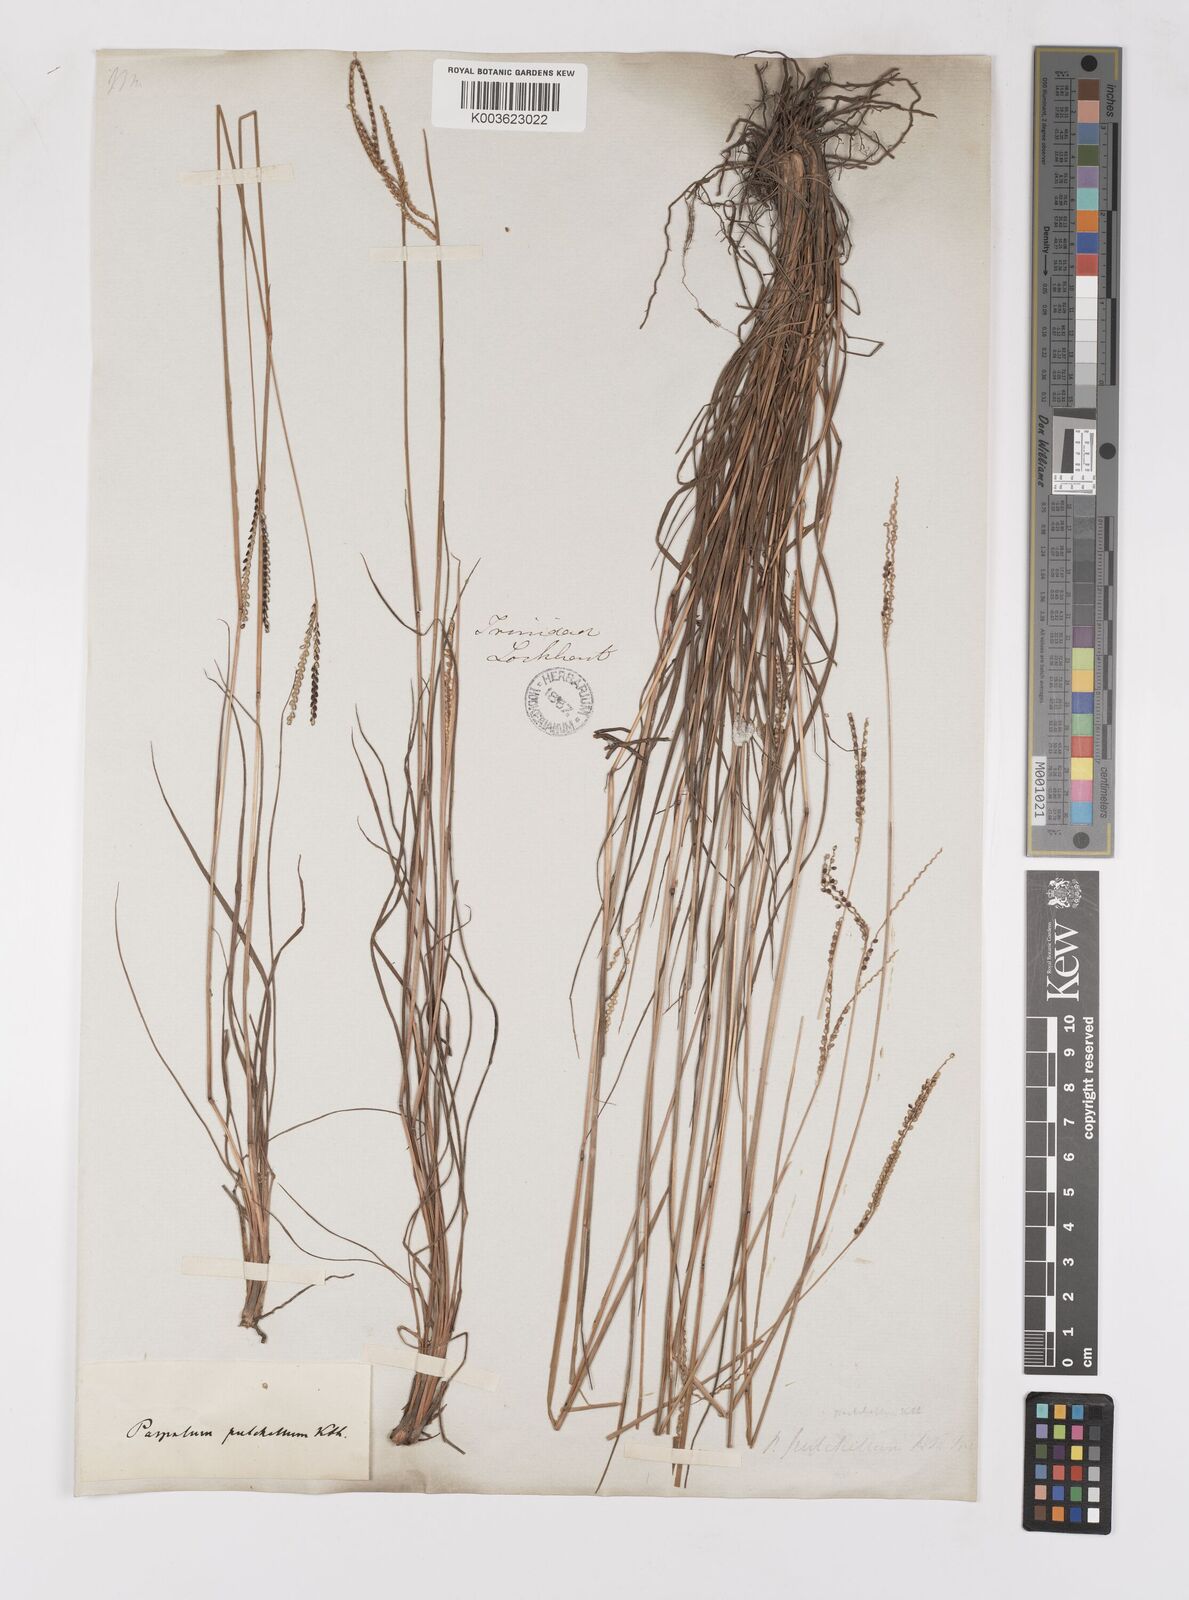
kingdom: Plantae
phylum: Tracheophyta
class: Liliopsida
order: Poales
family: Poaceae
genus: Paspalum
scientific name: Paspalum pulchellum
